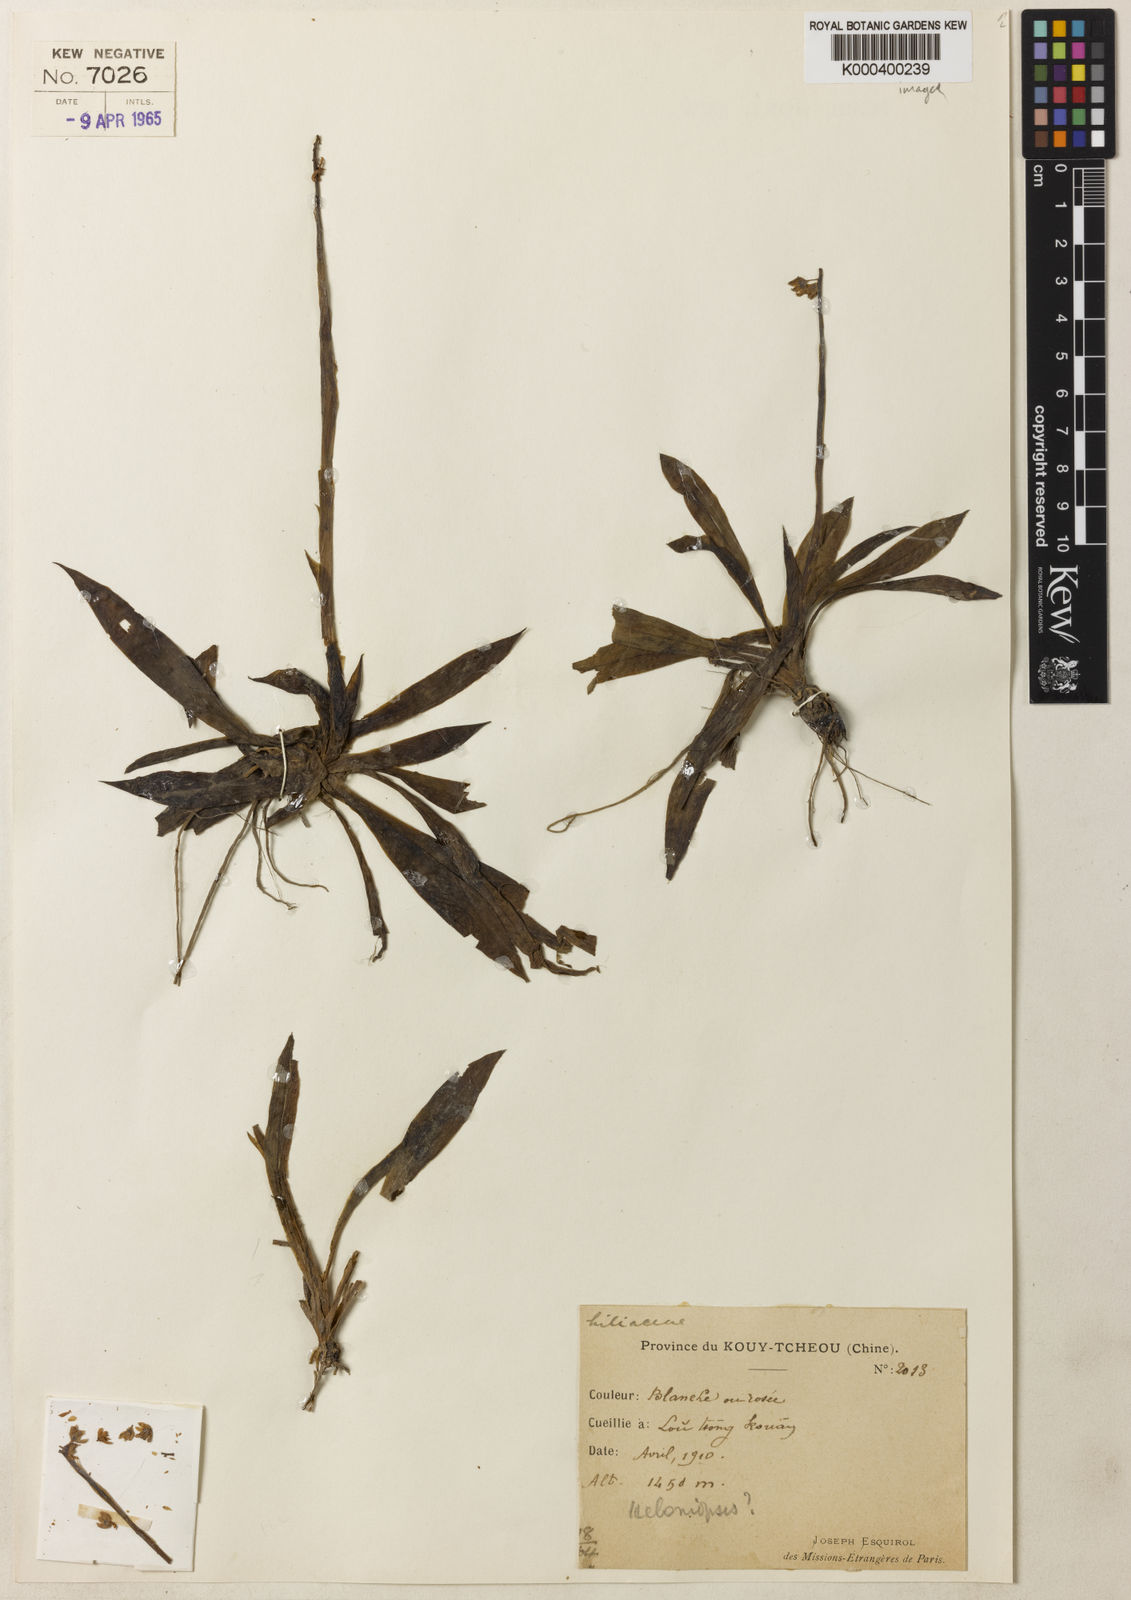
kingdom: Plantae
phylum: Tracheophyta
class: Liliopsida
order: Liliales
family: Melanthiaceae
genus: Helonias
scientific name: Helonias parviflora
